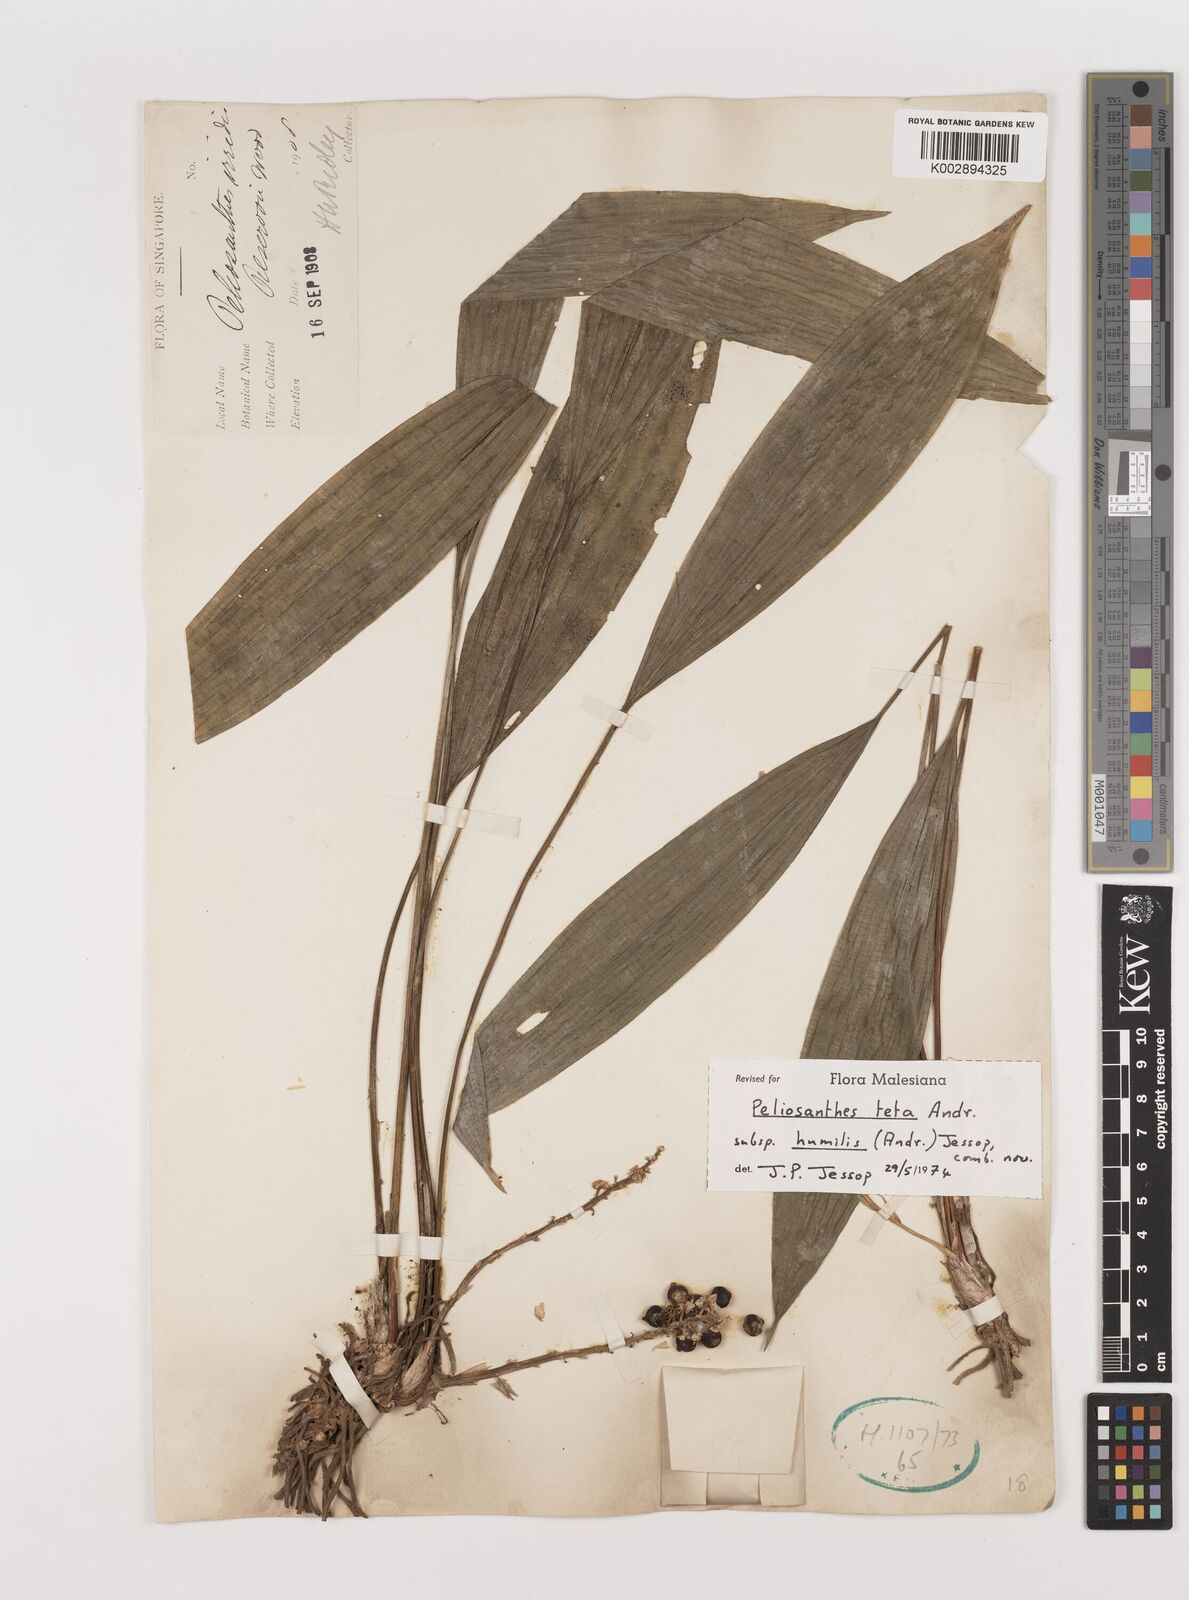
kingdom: Plantae
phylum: Tracheophyta
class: Liliopsida
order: Asparagales
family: Asparagaceae
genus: Peliosanthes
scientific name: Peliosanthes teta
